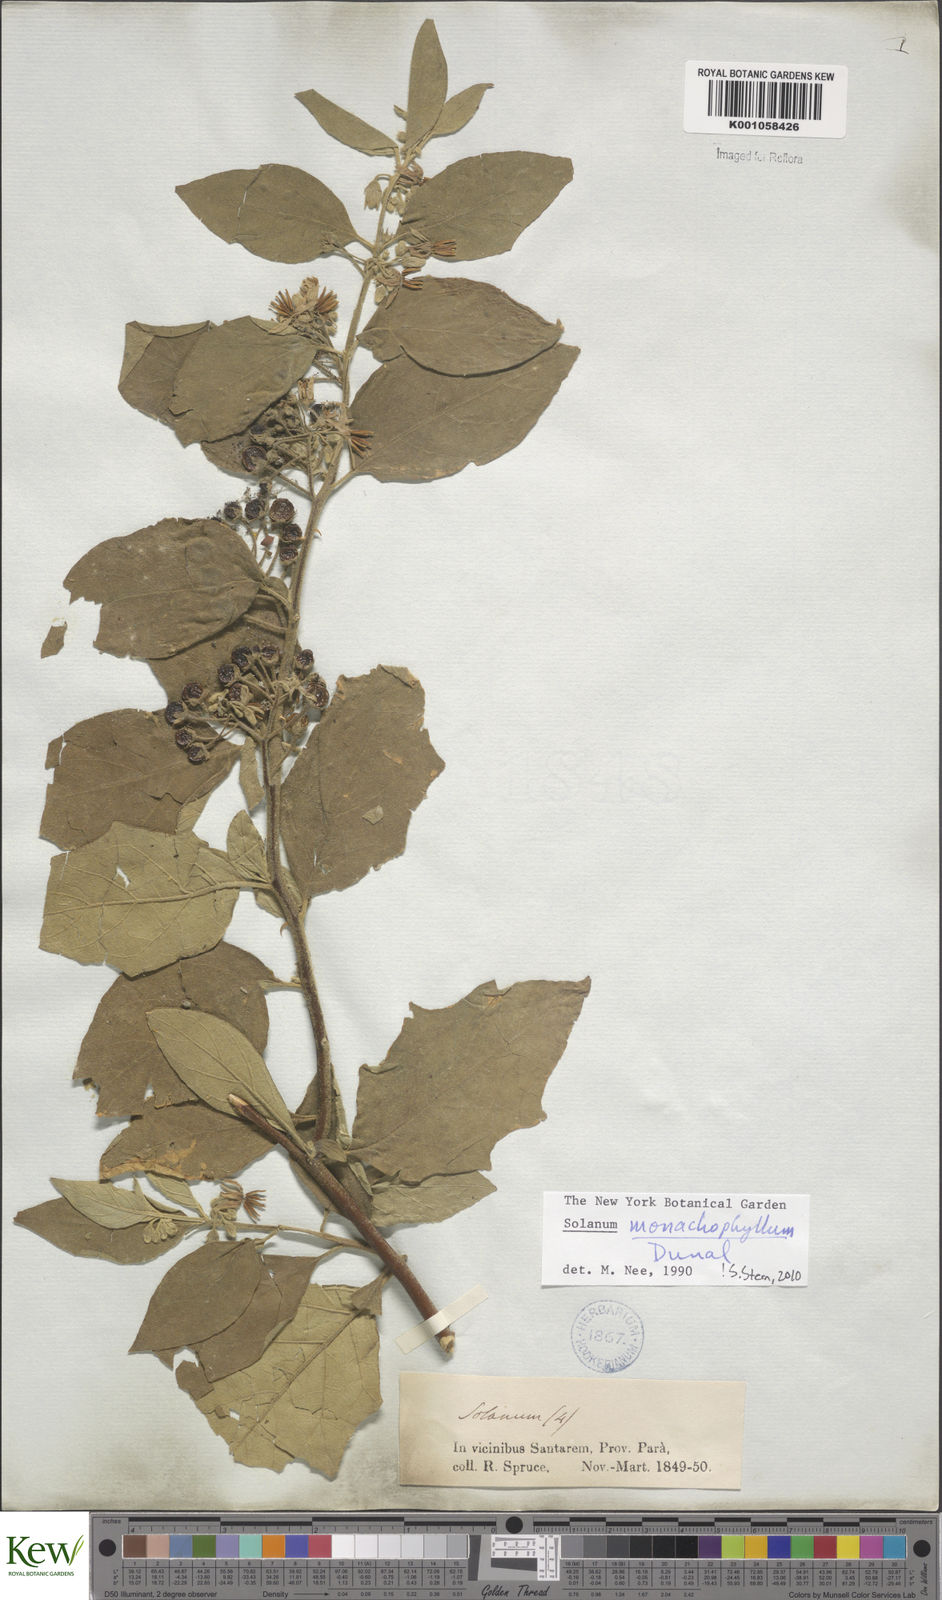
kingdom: Plantae
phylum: Tracheophyta
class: Magnoliopsida
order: Solanales
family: Solanaceae
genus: Solanum
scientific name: Solanum monachophyllum
